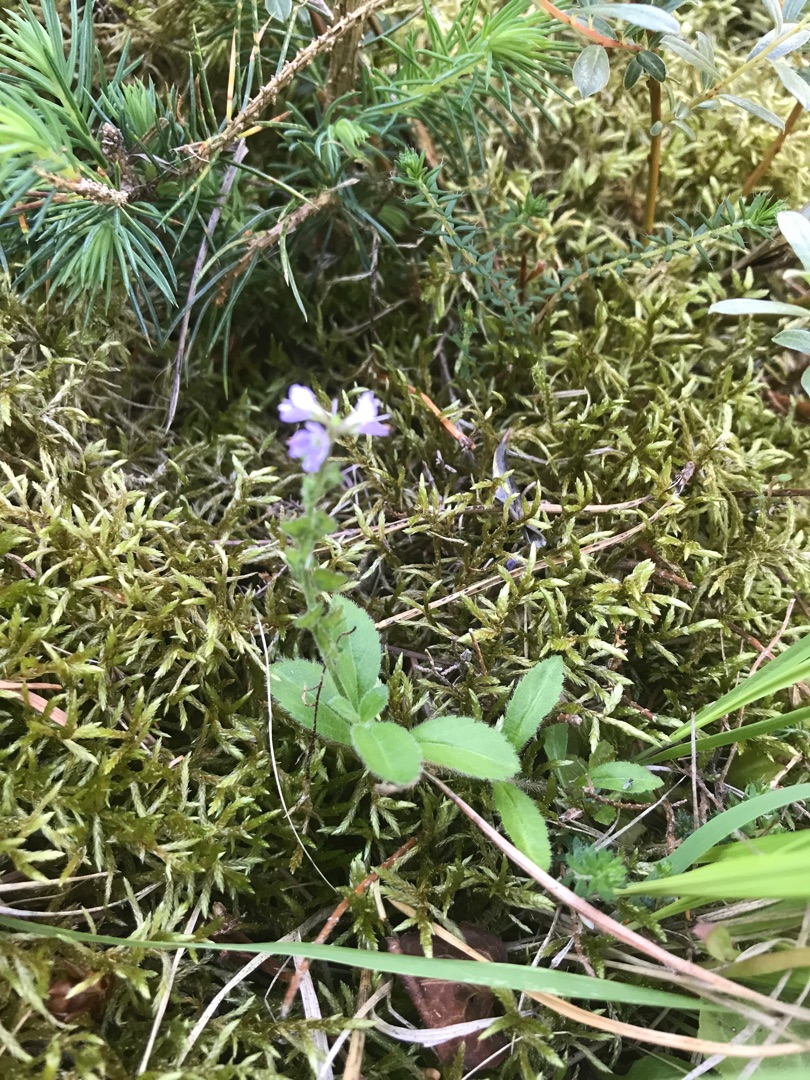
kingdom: Plantae
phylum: Tracheophyta
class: Magnoliopsida
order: Lamiales
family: Plantaginaceae
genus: Veronica
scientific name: Veronica officinalis
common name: Læge-ærenpris
